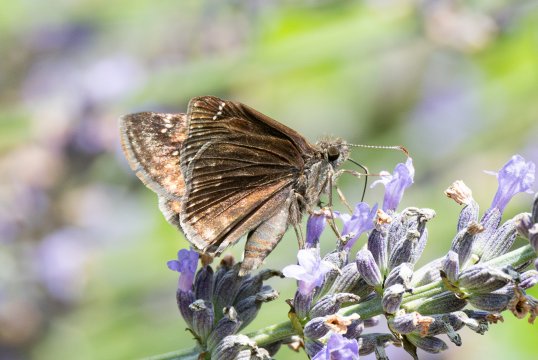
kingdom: Animalia
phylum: Arthropoda
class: Insecta
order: Lepidoptera
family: Hesperiidae
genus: Gesta
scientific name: Gesta
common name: Wild Indigo Duskywing
